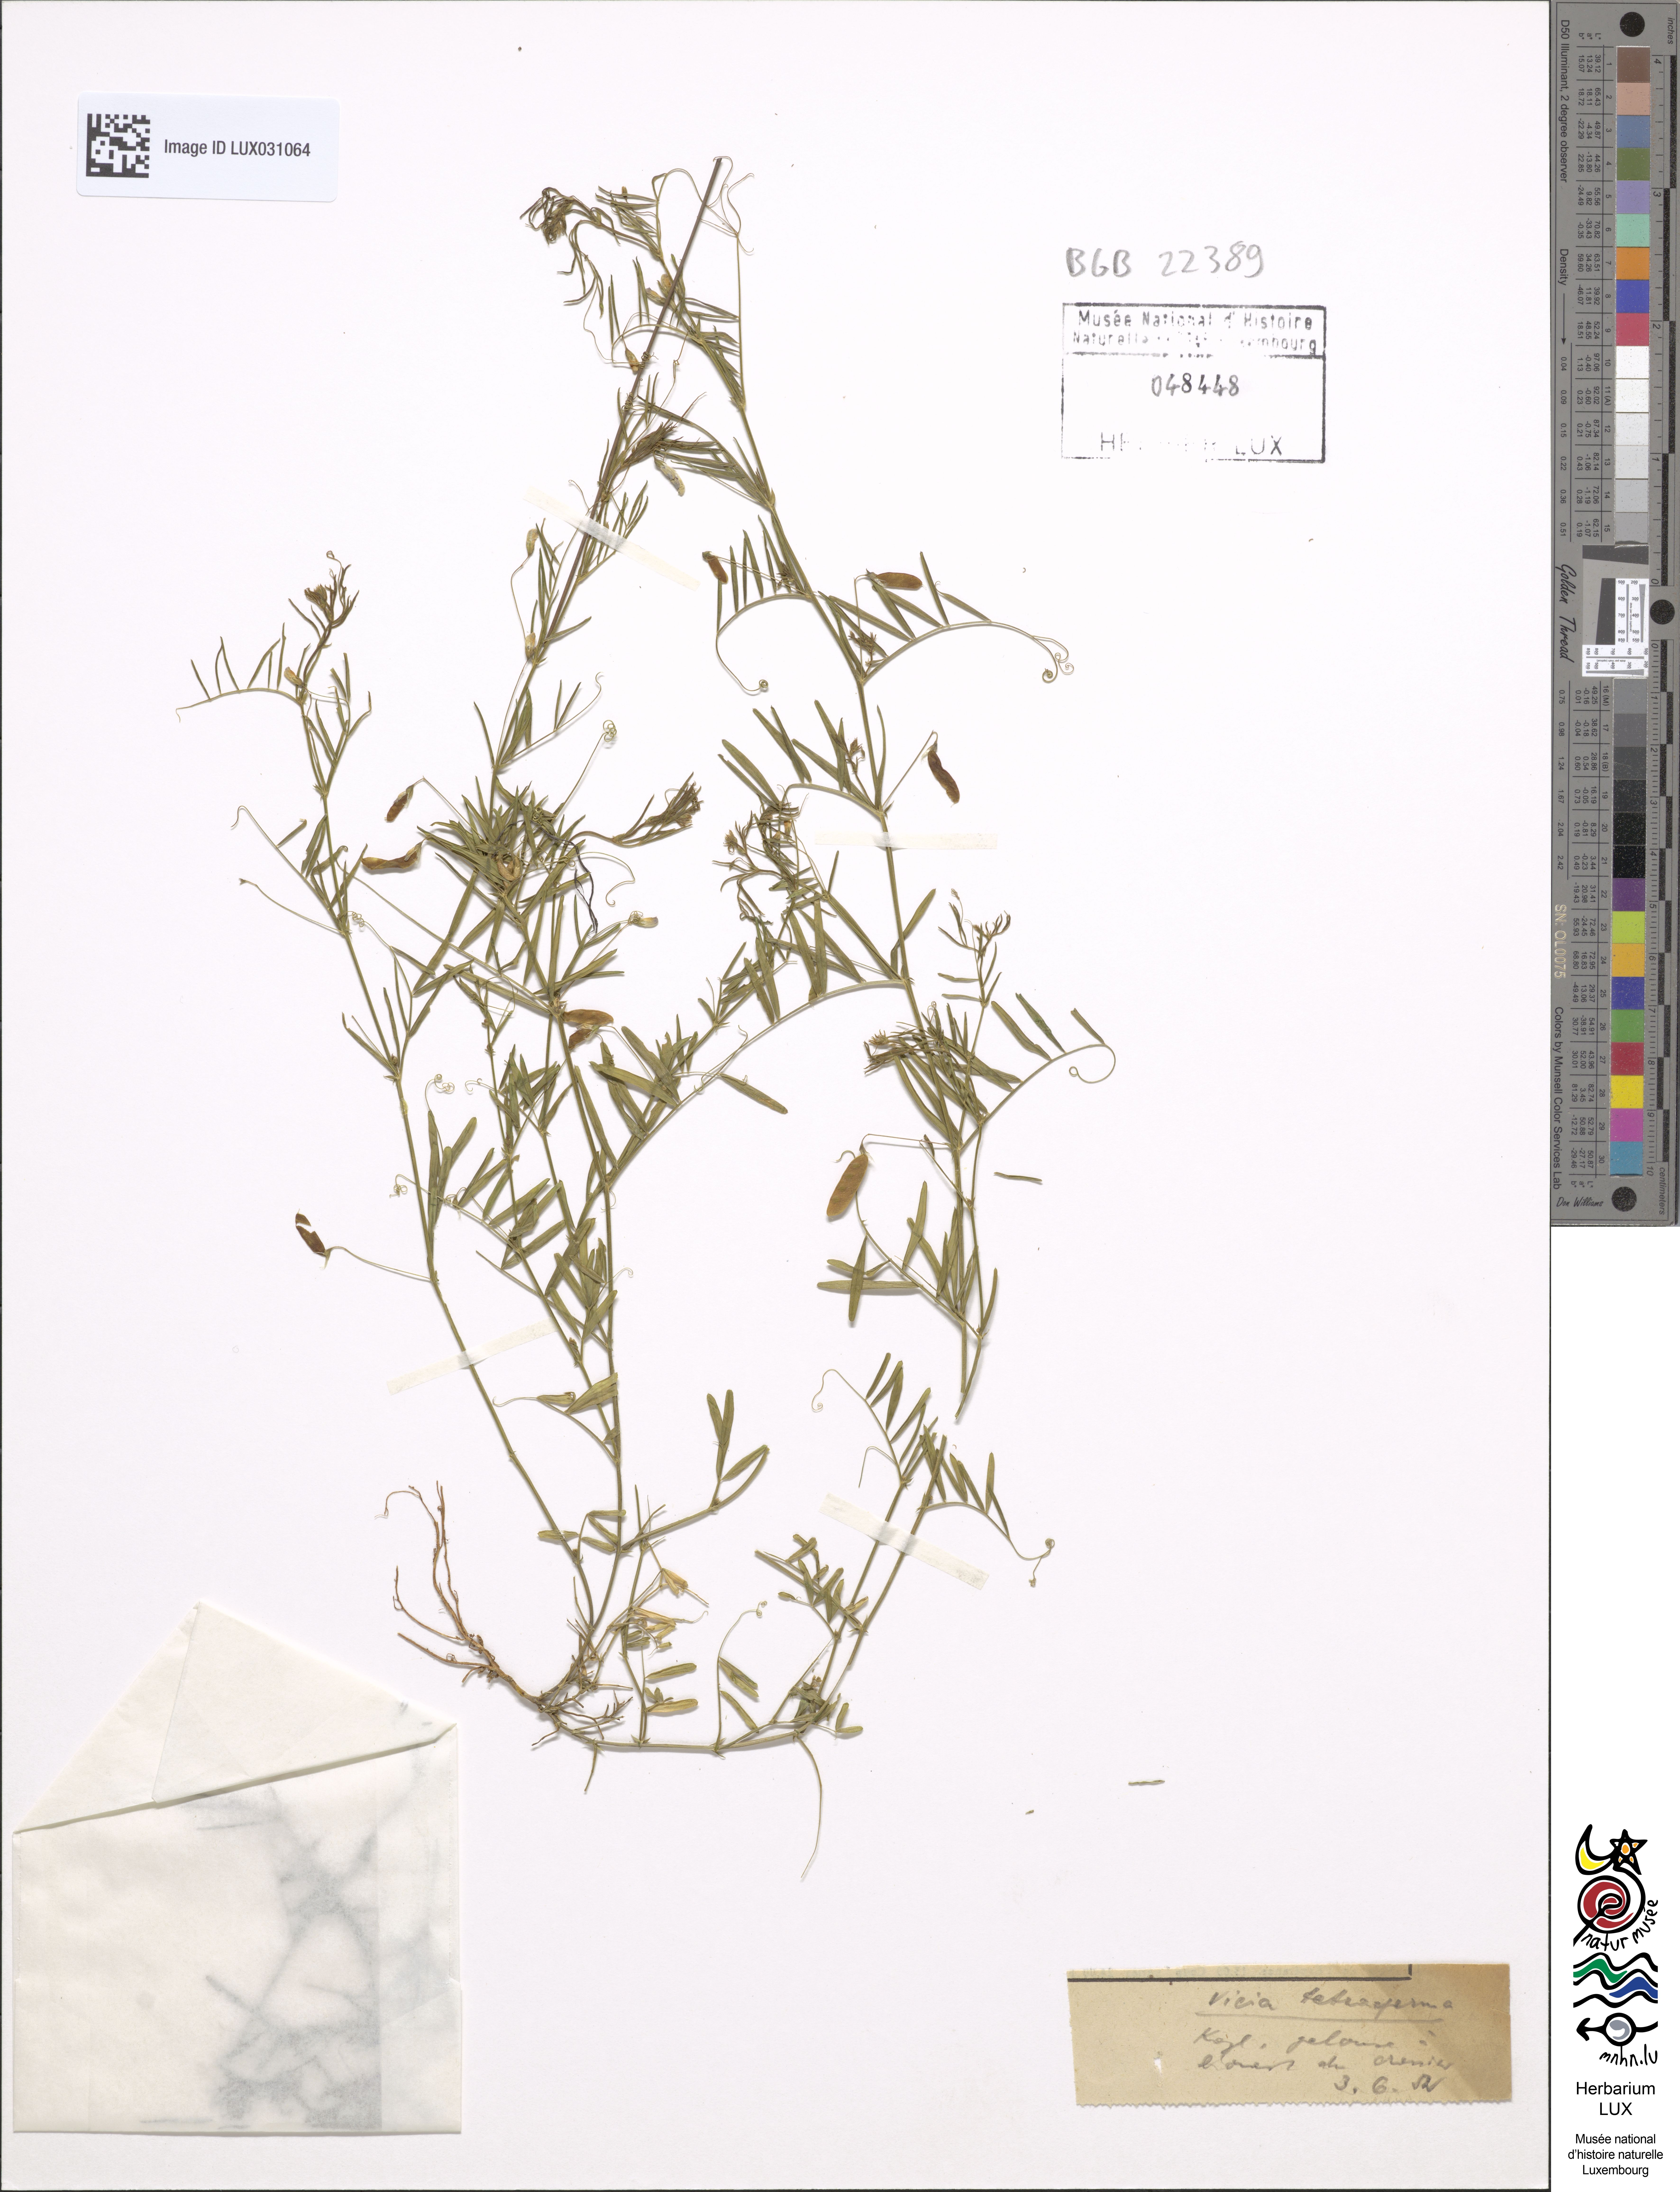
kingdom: Plantae
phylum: Tracheophyta
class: Magnoliopsida
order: Fabales
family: Fabaceae
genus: Vicia
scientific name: Vicia tetrasperma
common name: Smooth tare
